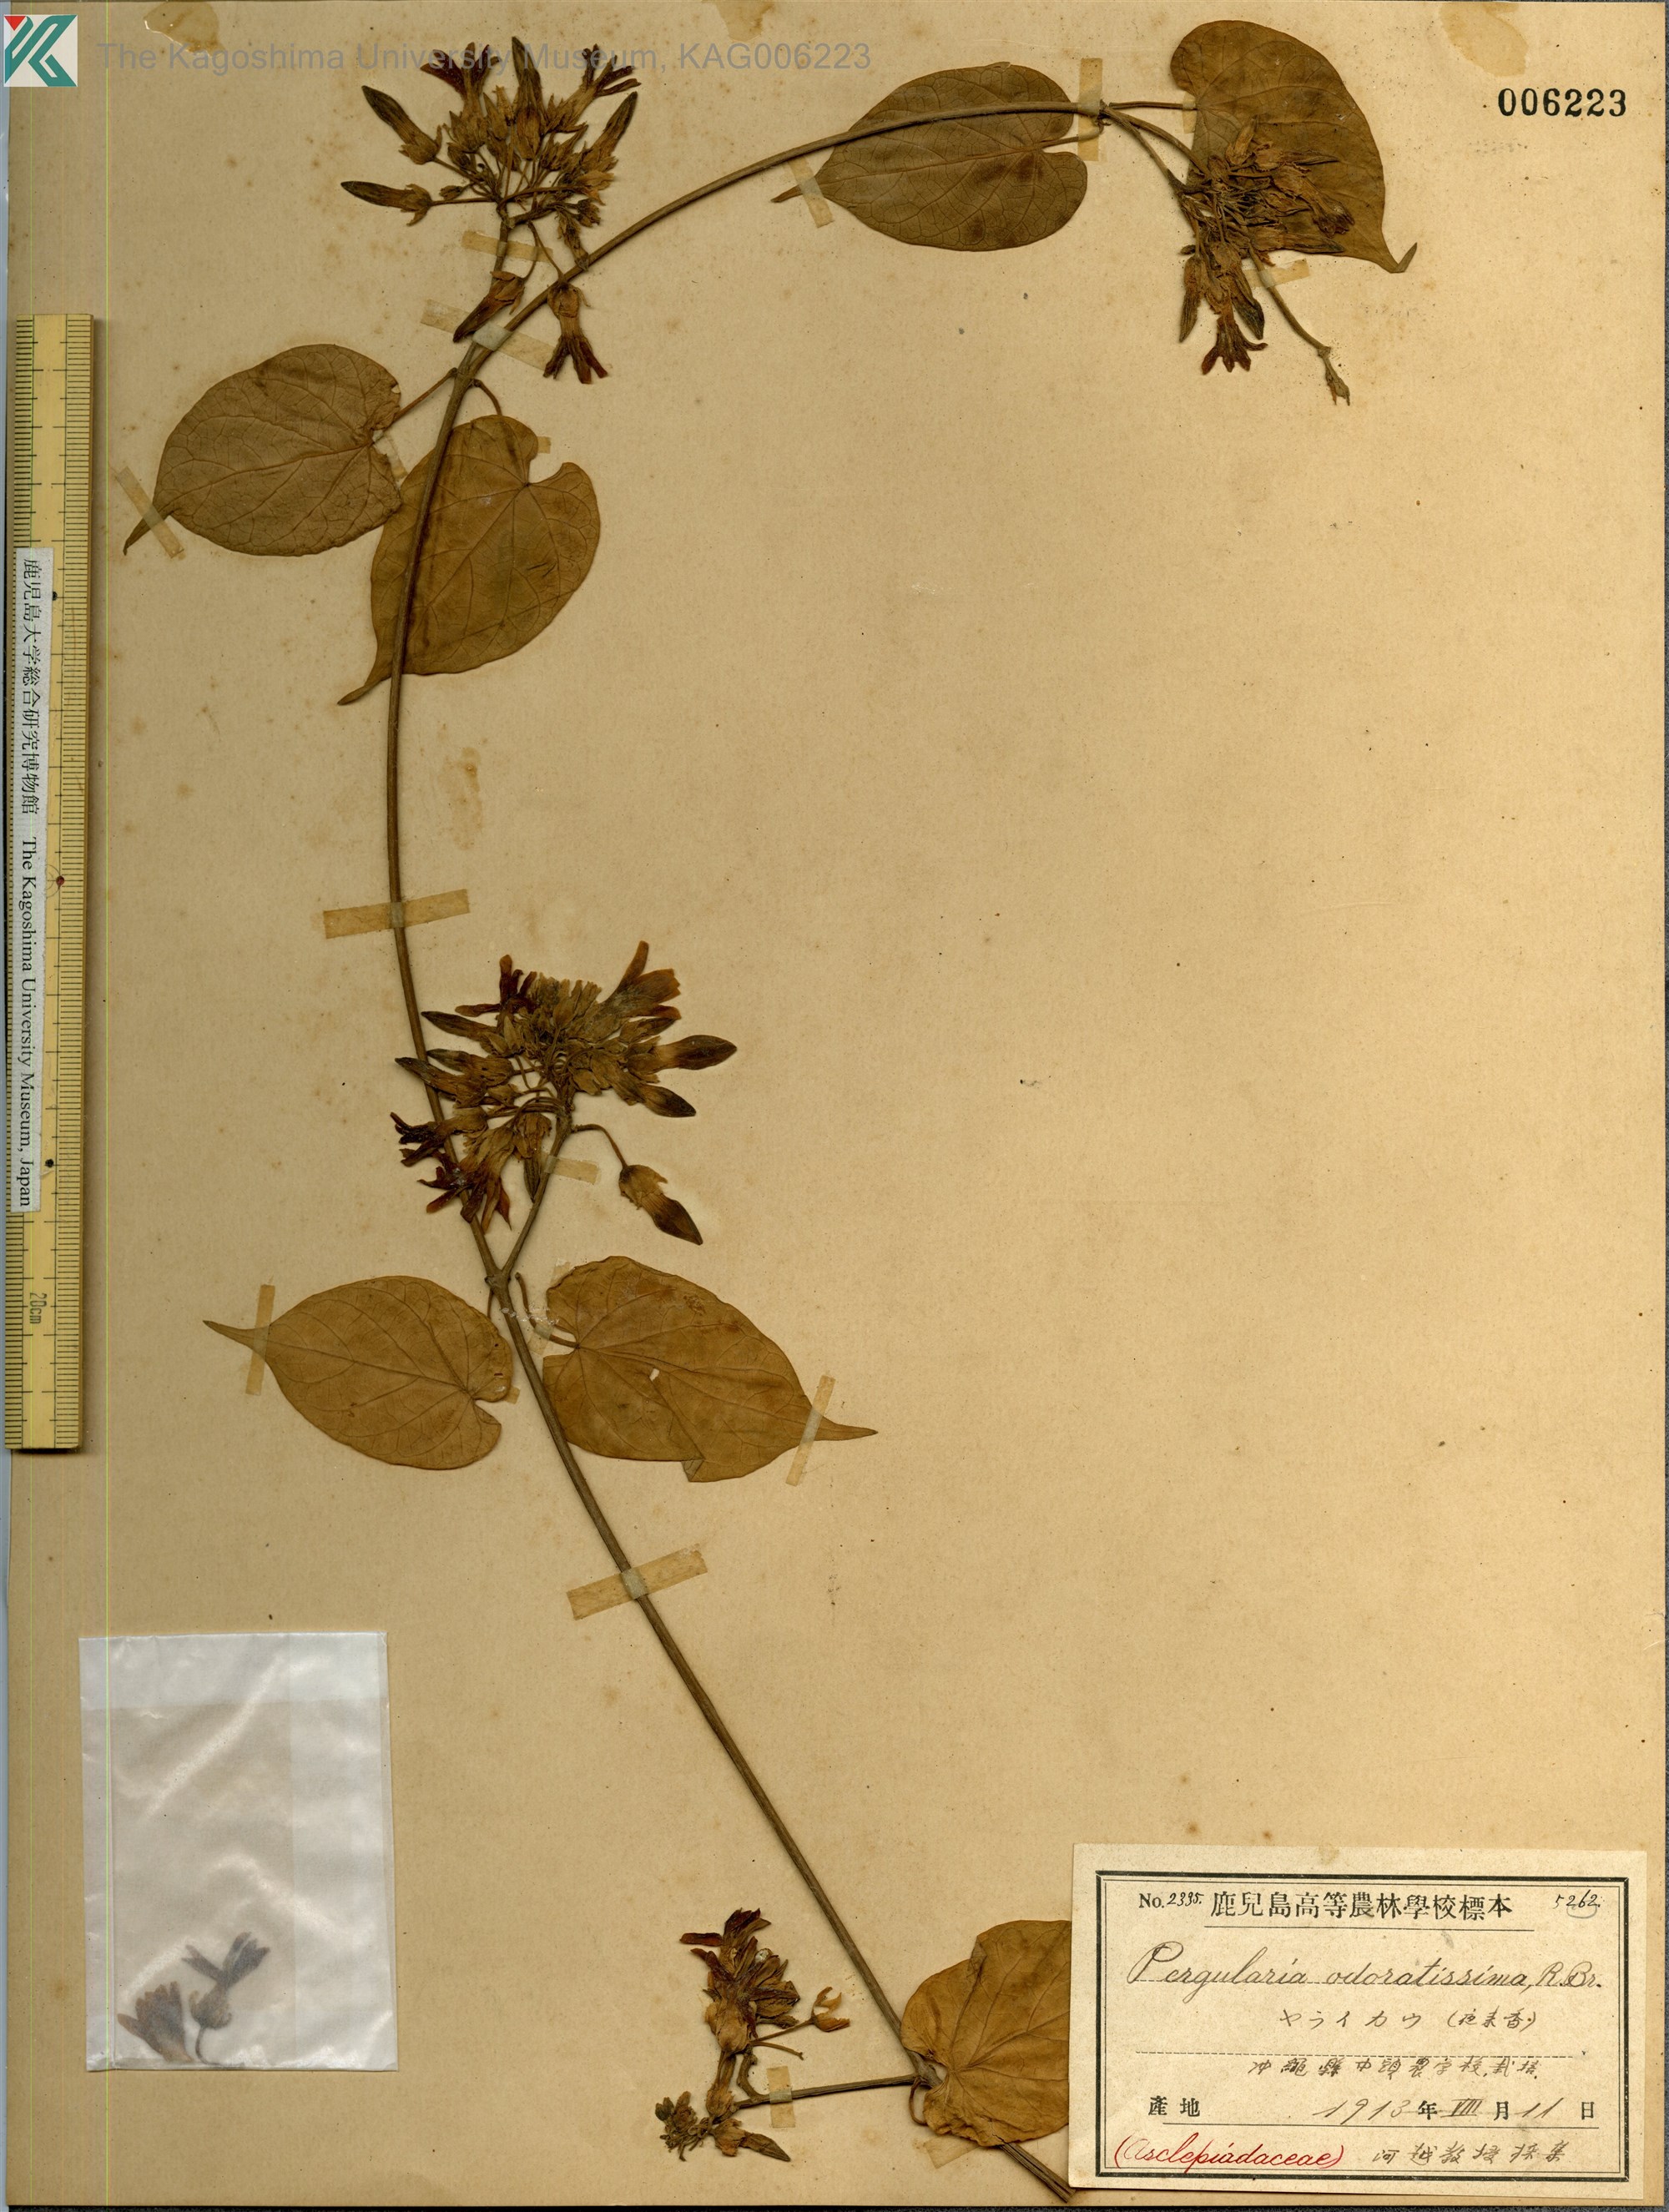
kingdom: Plantae
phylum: Tracheophyta
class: Magnoliopsida
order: Gentianales
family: Apocynaceae
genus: Telosma
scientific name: Telosma cordata
